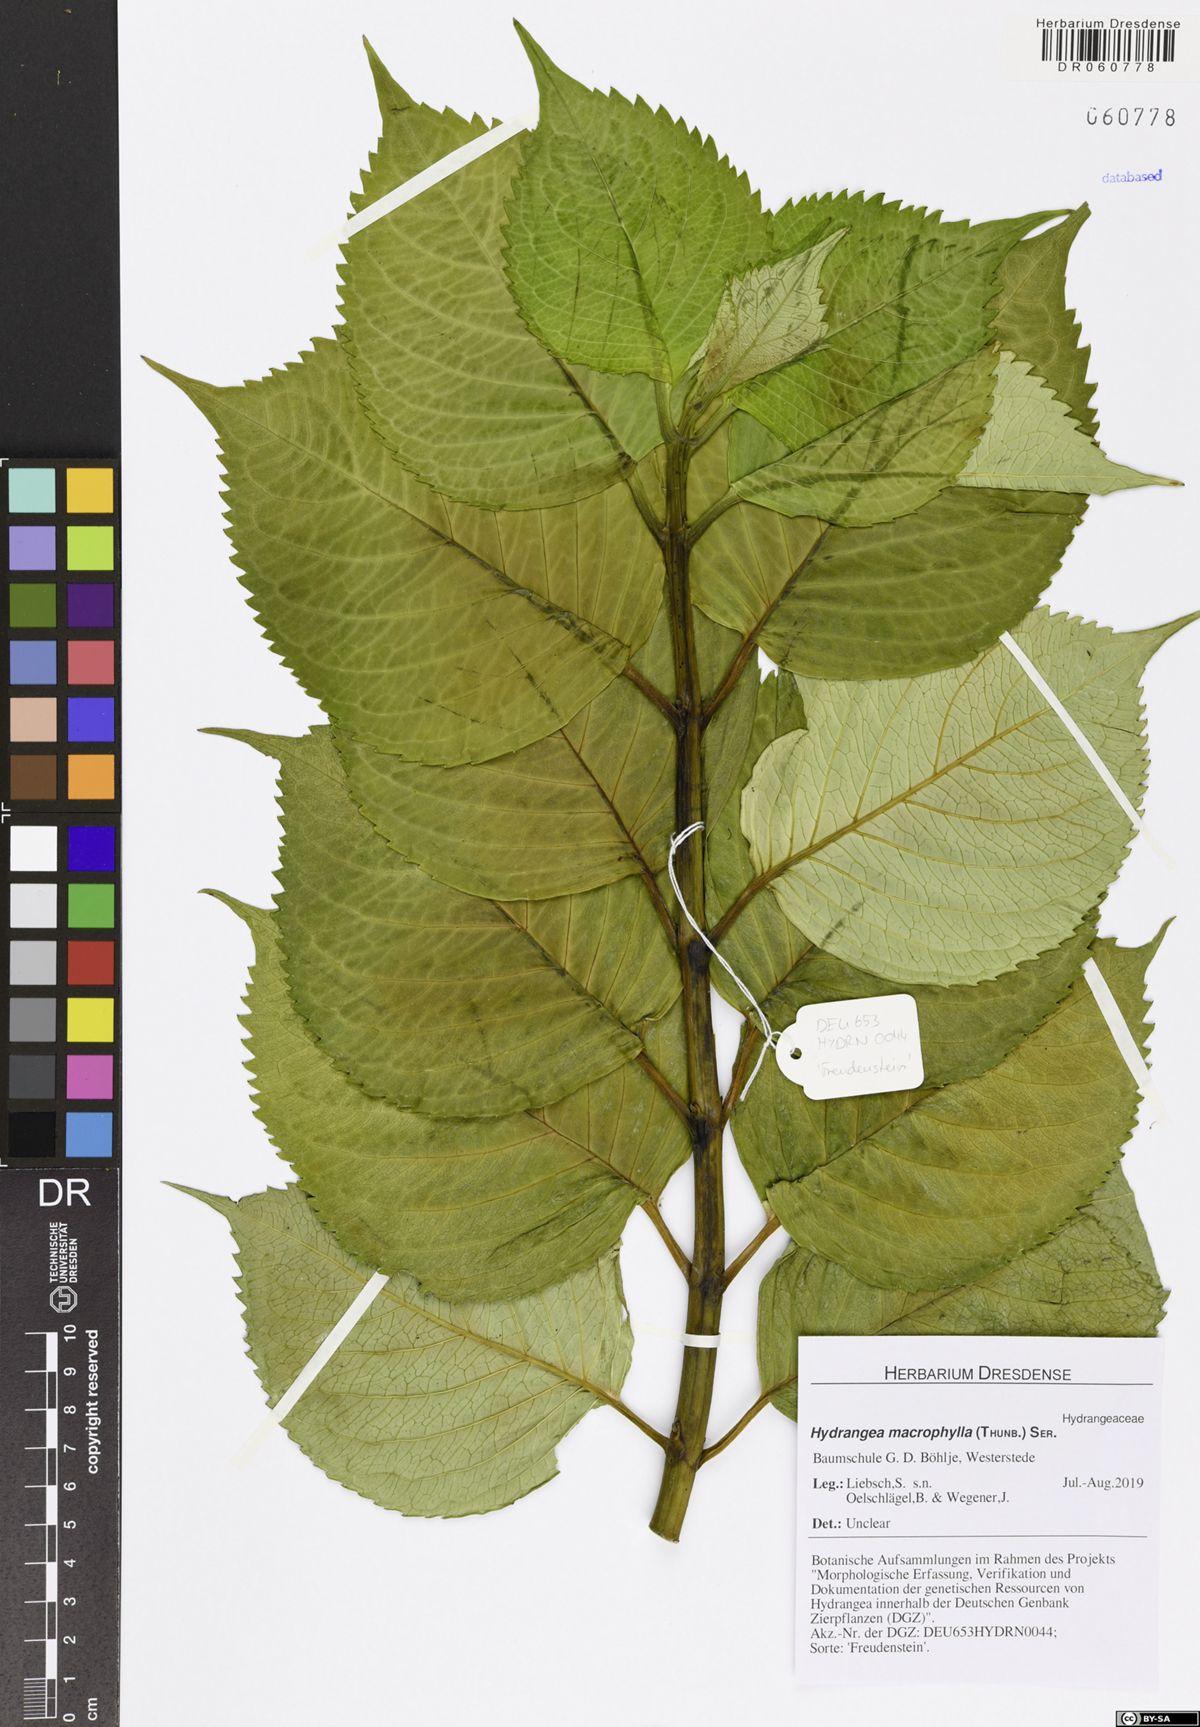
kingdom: Plantae
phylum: Tracheophyta
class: Magnoliopsida
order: Cornales
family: Hydrangeaceae
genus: Hydrangea
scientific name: Hydrangea macrophylla
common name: Hydrangea
